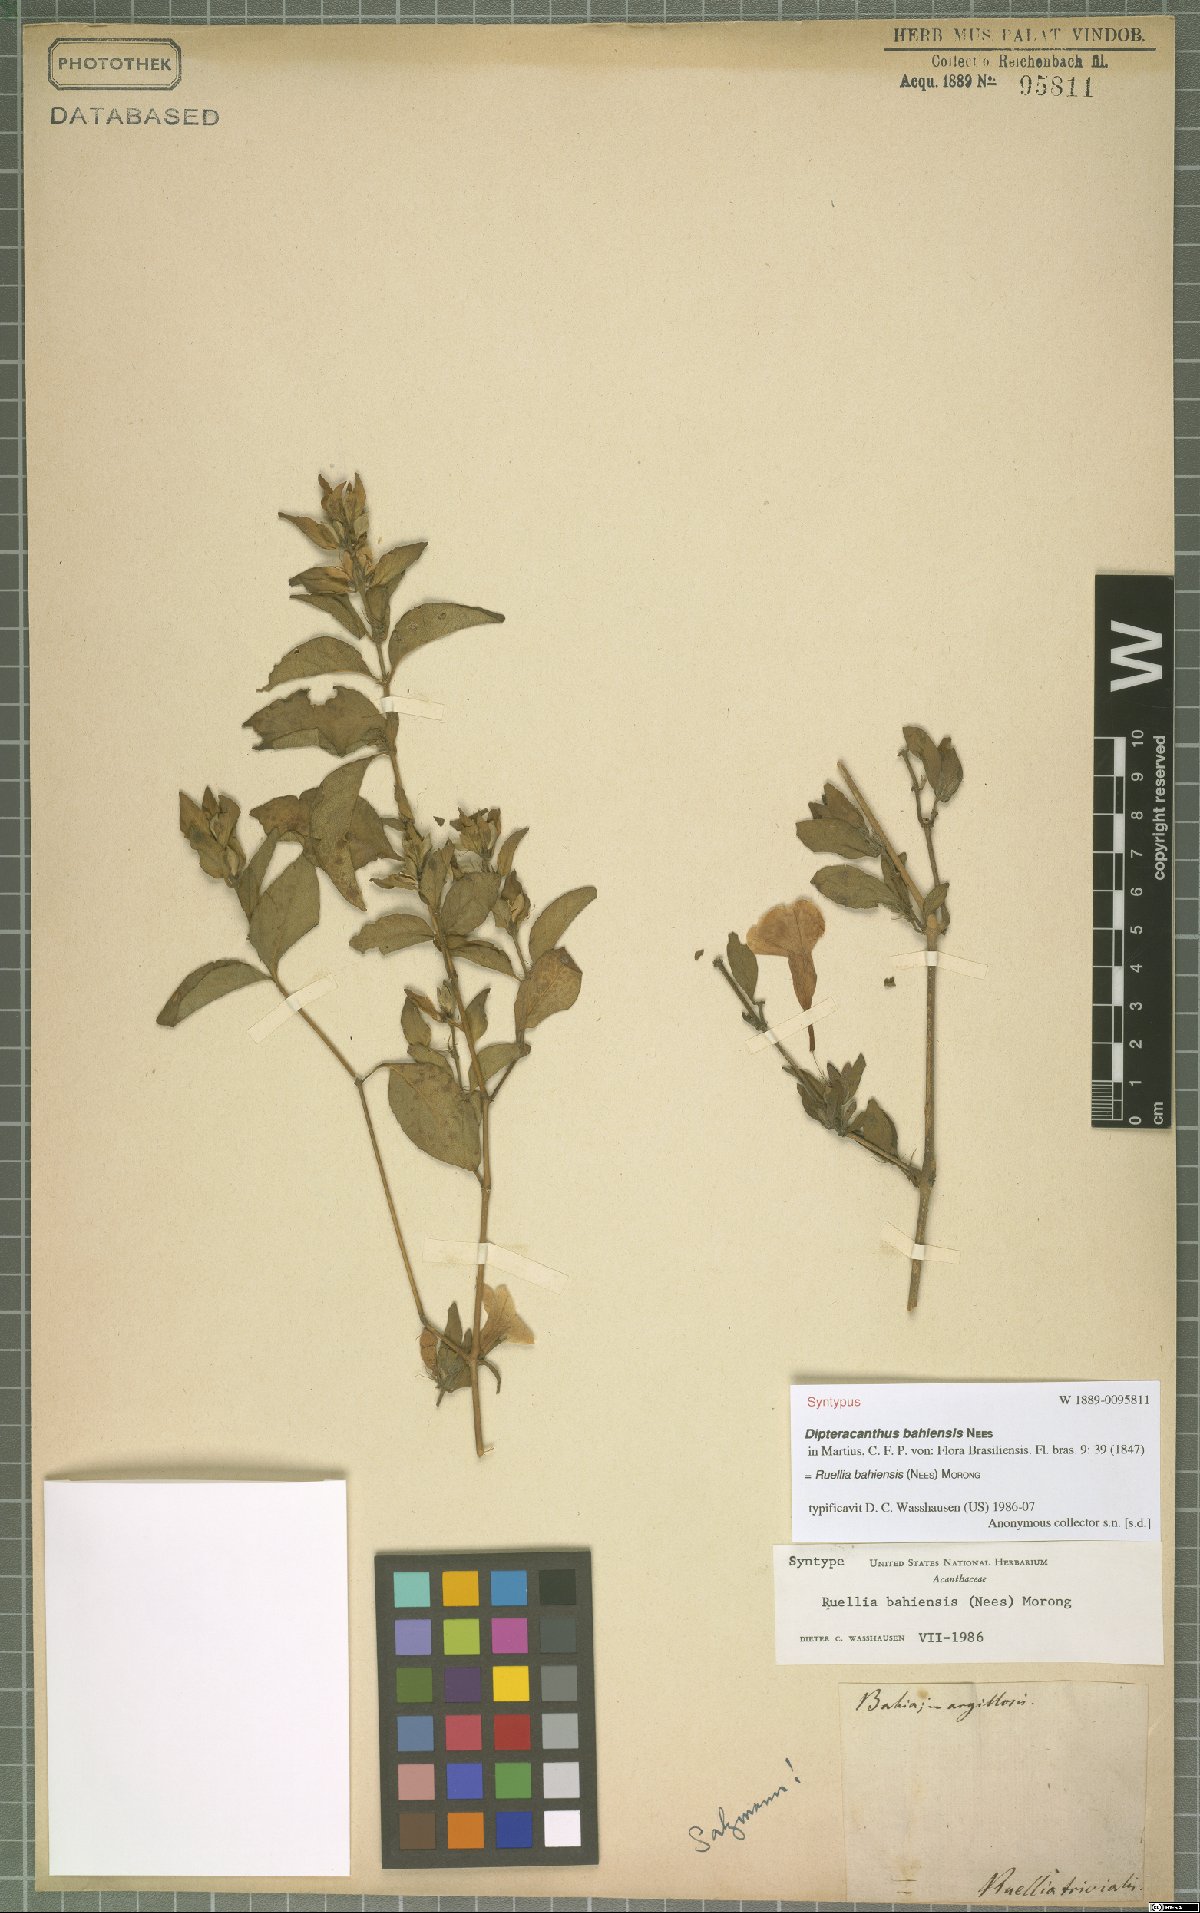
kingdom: Plantae
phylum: Tracheophyta
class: Magnoliopsida
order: Lamiales
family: Acanthaceae
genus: Ruellia
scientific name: Ruellia bahiensis
